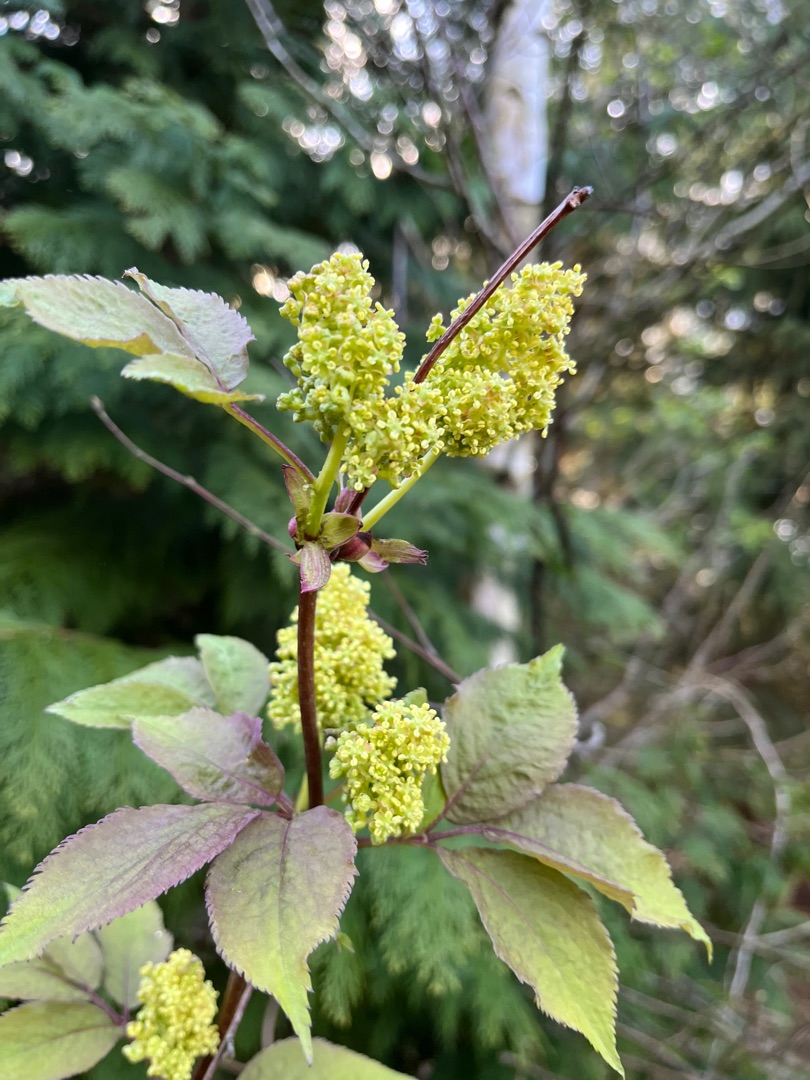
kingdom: Plantae
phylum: Tracheophyta
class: Magnoliopsida
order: Dipsacales
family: Viburnaceae
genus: Sambucus
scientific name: Sambucus racemosa
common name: Drue-hyld
